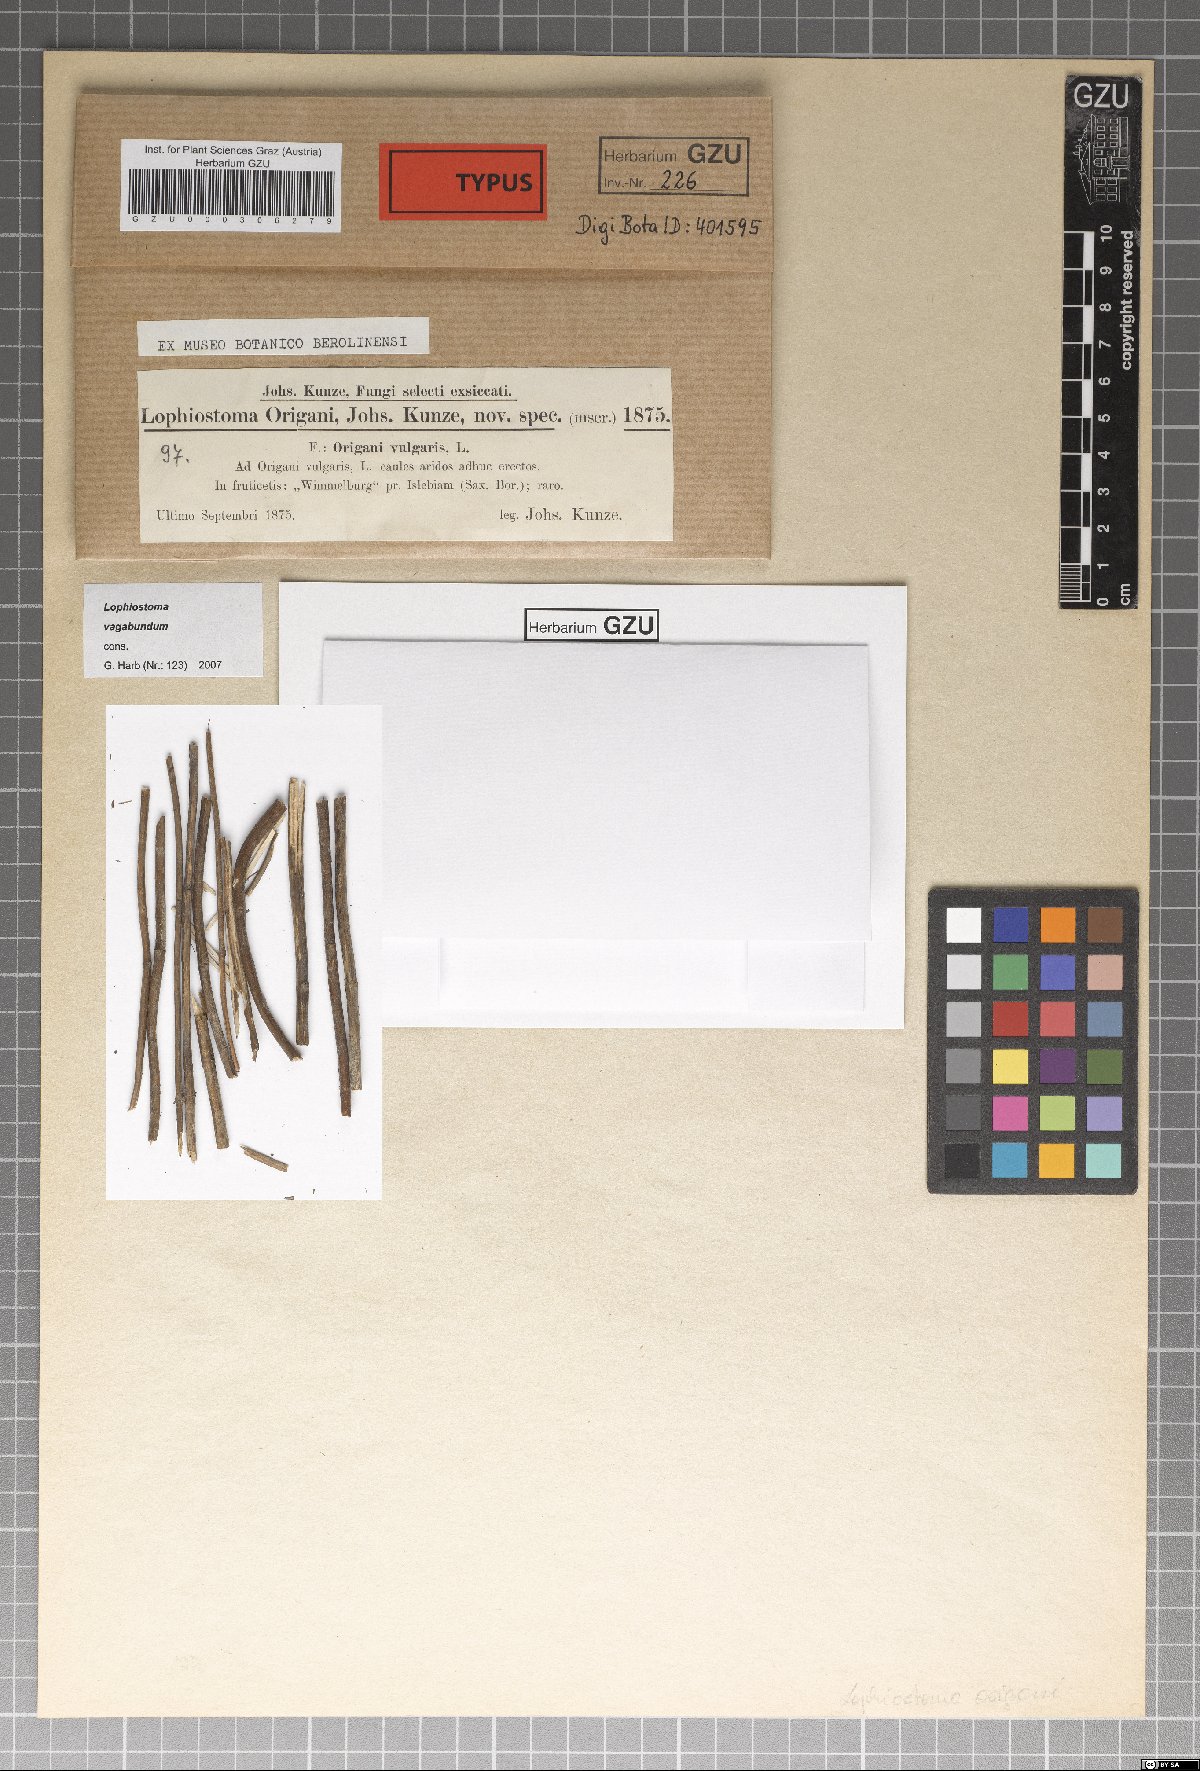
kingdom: Fungi
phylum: Ascomycota
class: Dothideomycetes
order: Pleosporales
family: Lophiostomataceae
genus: Lophiostoma
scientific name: Lophiostoma vagabundum
